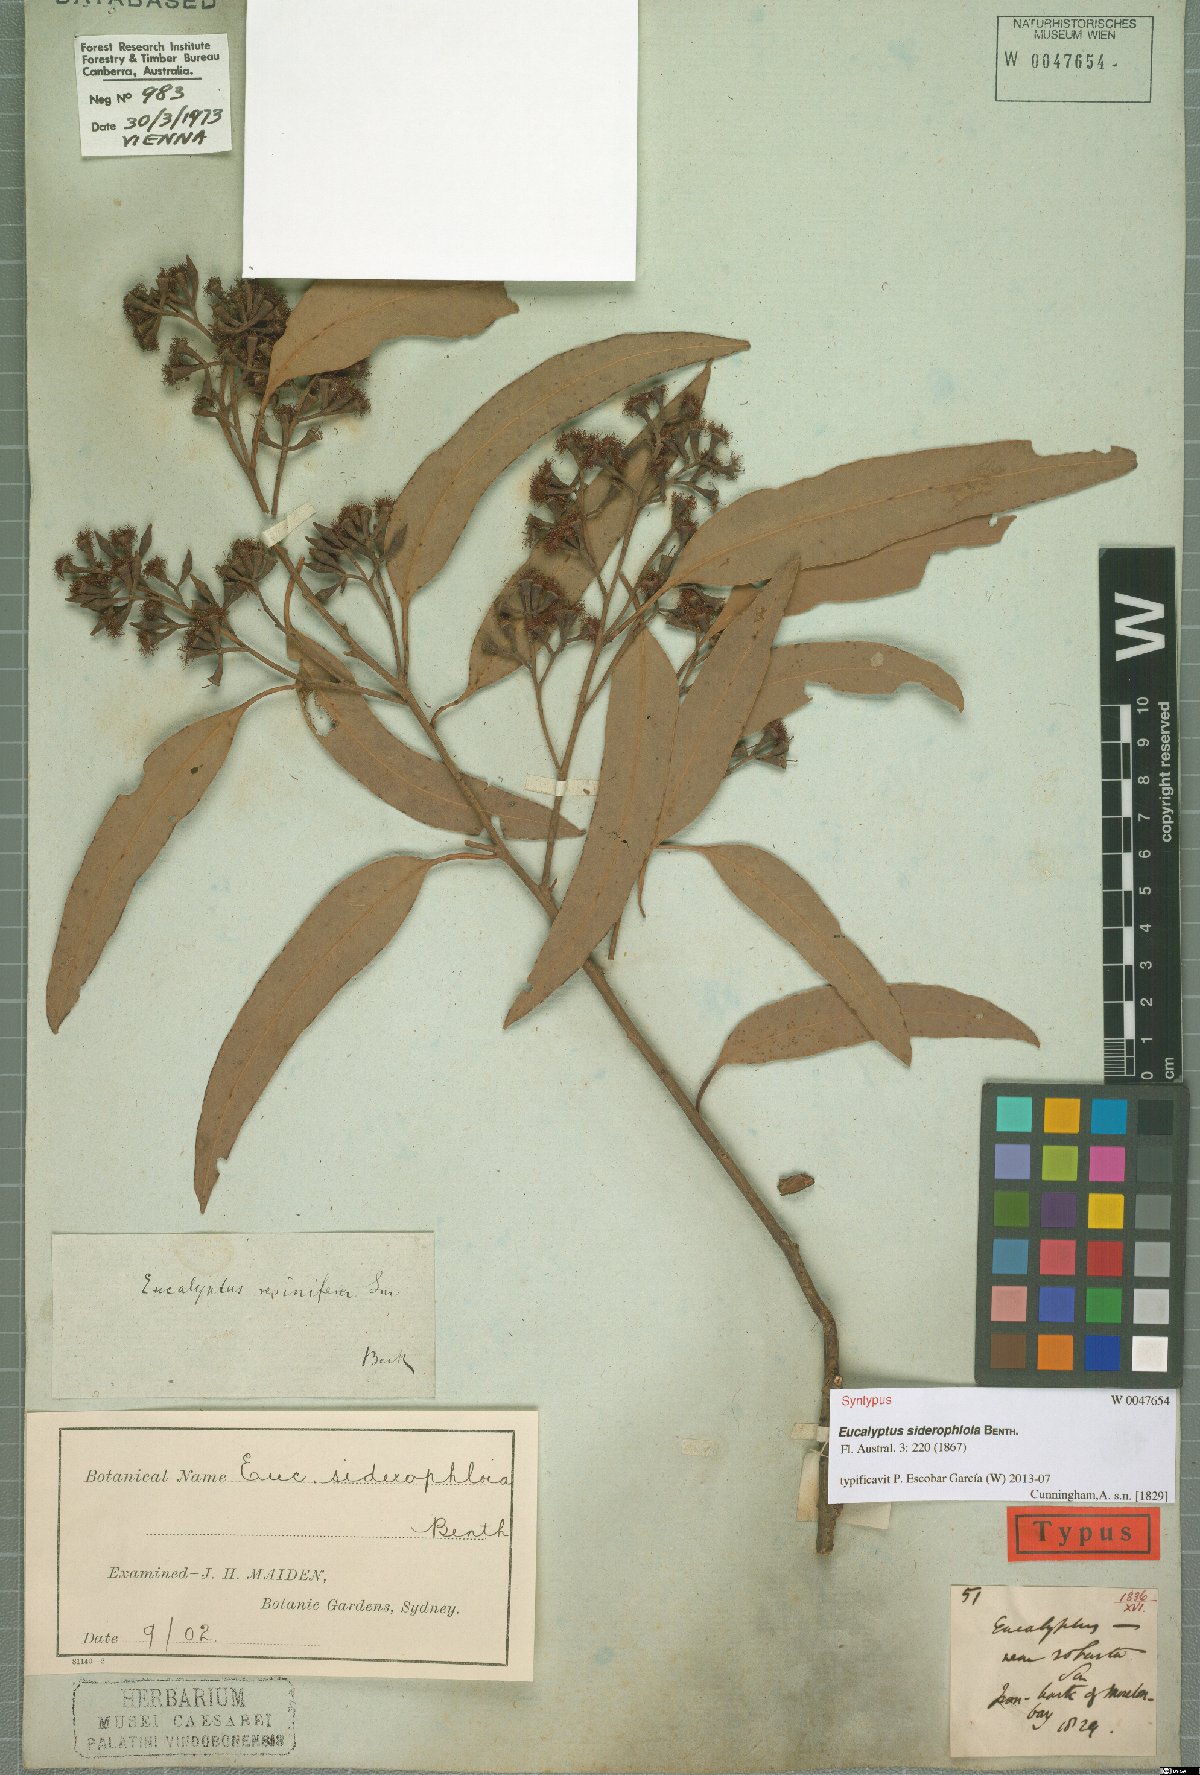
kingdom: Plantae
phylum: Tracheophyta
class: Magnoliopsida
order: Myrtales
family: Myrtaceae
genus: Eucalyptus
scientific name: Eucalyptus siderophloia
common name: Broad-leafed-ironbark
